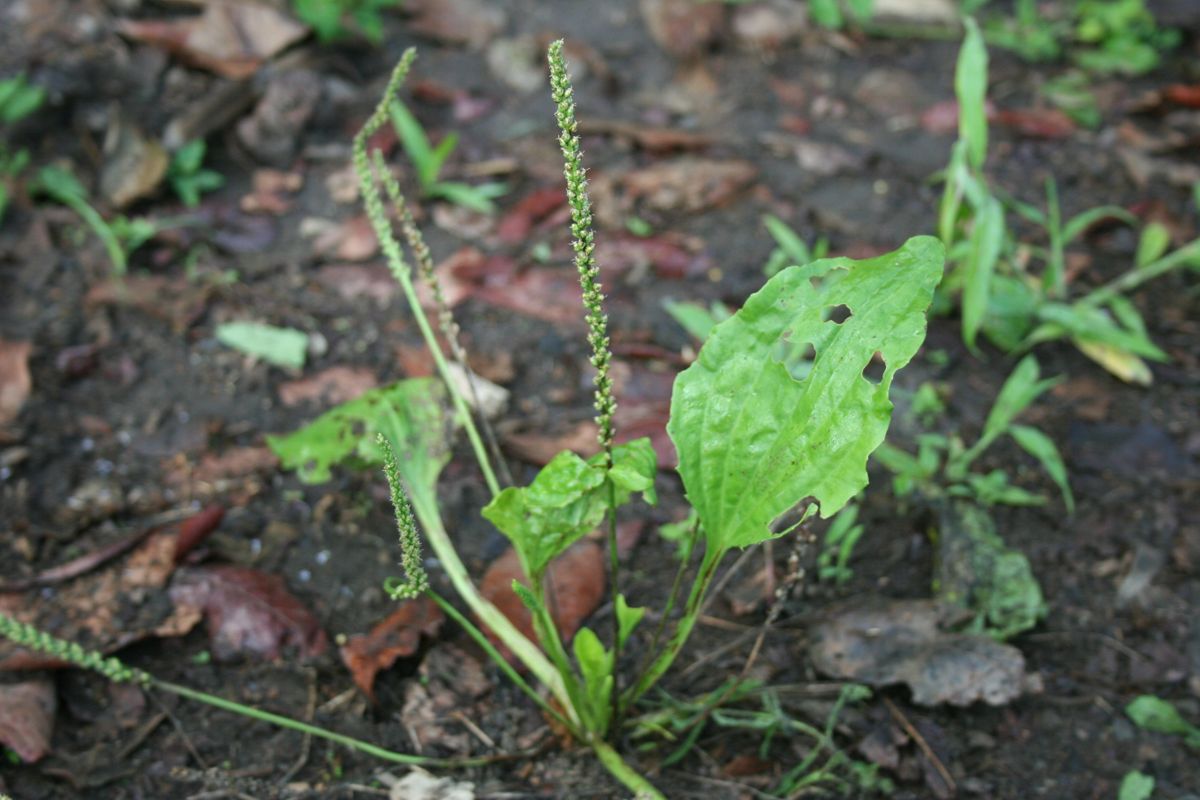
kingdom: Plantae
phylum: Tracheophyta
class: Magnoliopsida
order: Lamiales
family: Plantaginaceae
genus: Plantago
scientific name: Plantago major
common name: Common plantain
